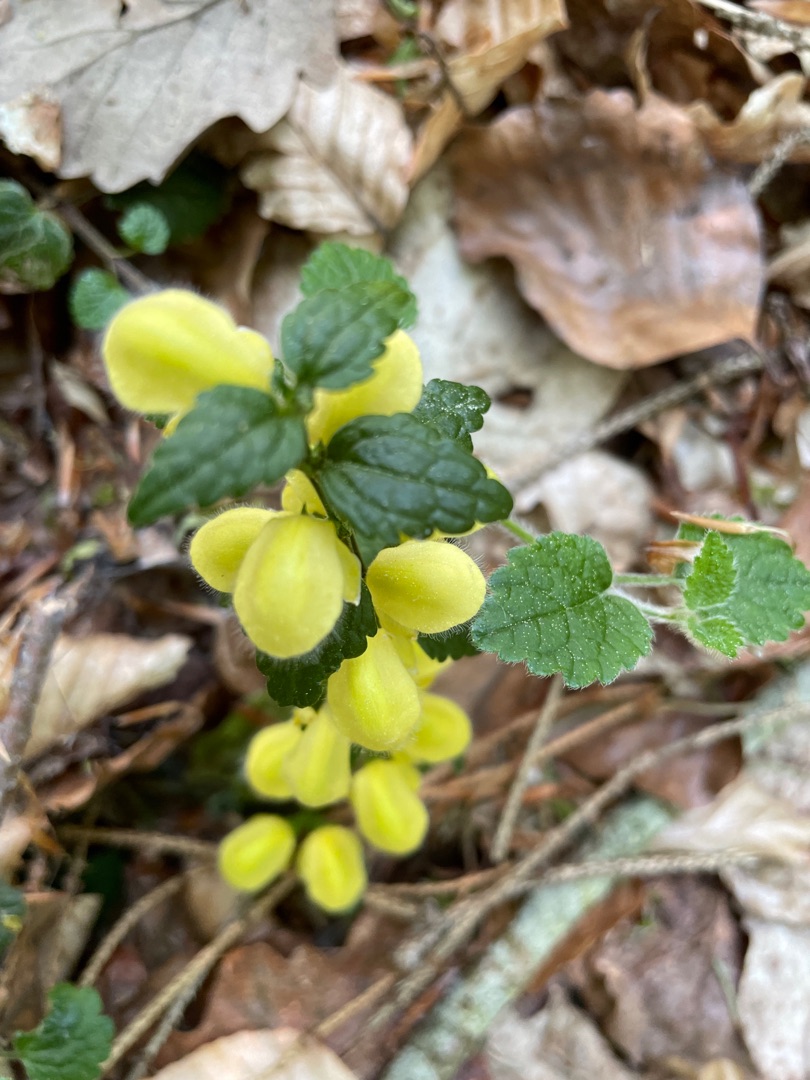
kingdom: Plantae
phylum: Tracheophyta
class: Magnoliopsida
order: Lamiales
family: Lamiaceae
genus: Lamium
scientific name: Lamium galeobdolon
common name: Guldnælde
